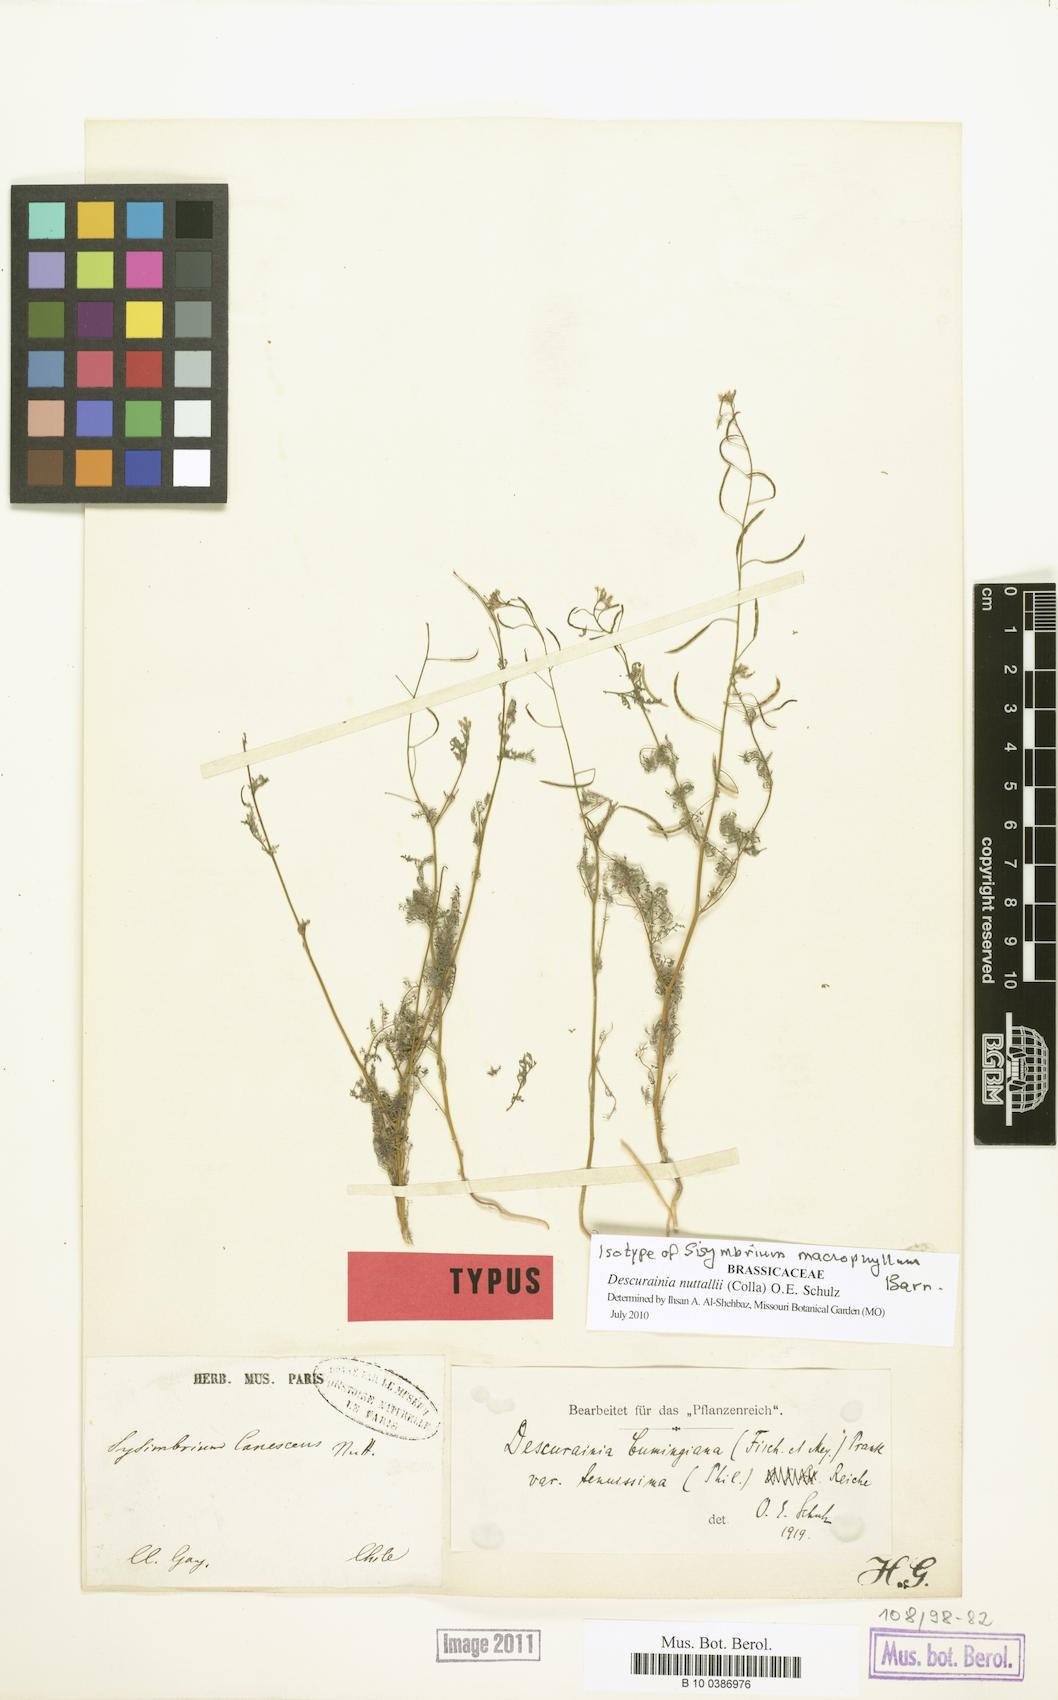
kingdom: Plantae
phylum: Tracheophyta
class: Magnoliopsida
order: Brassicales
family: Brassicaceae
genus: Descurainia
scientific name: Descurainia nuttallii
